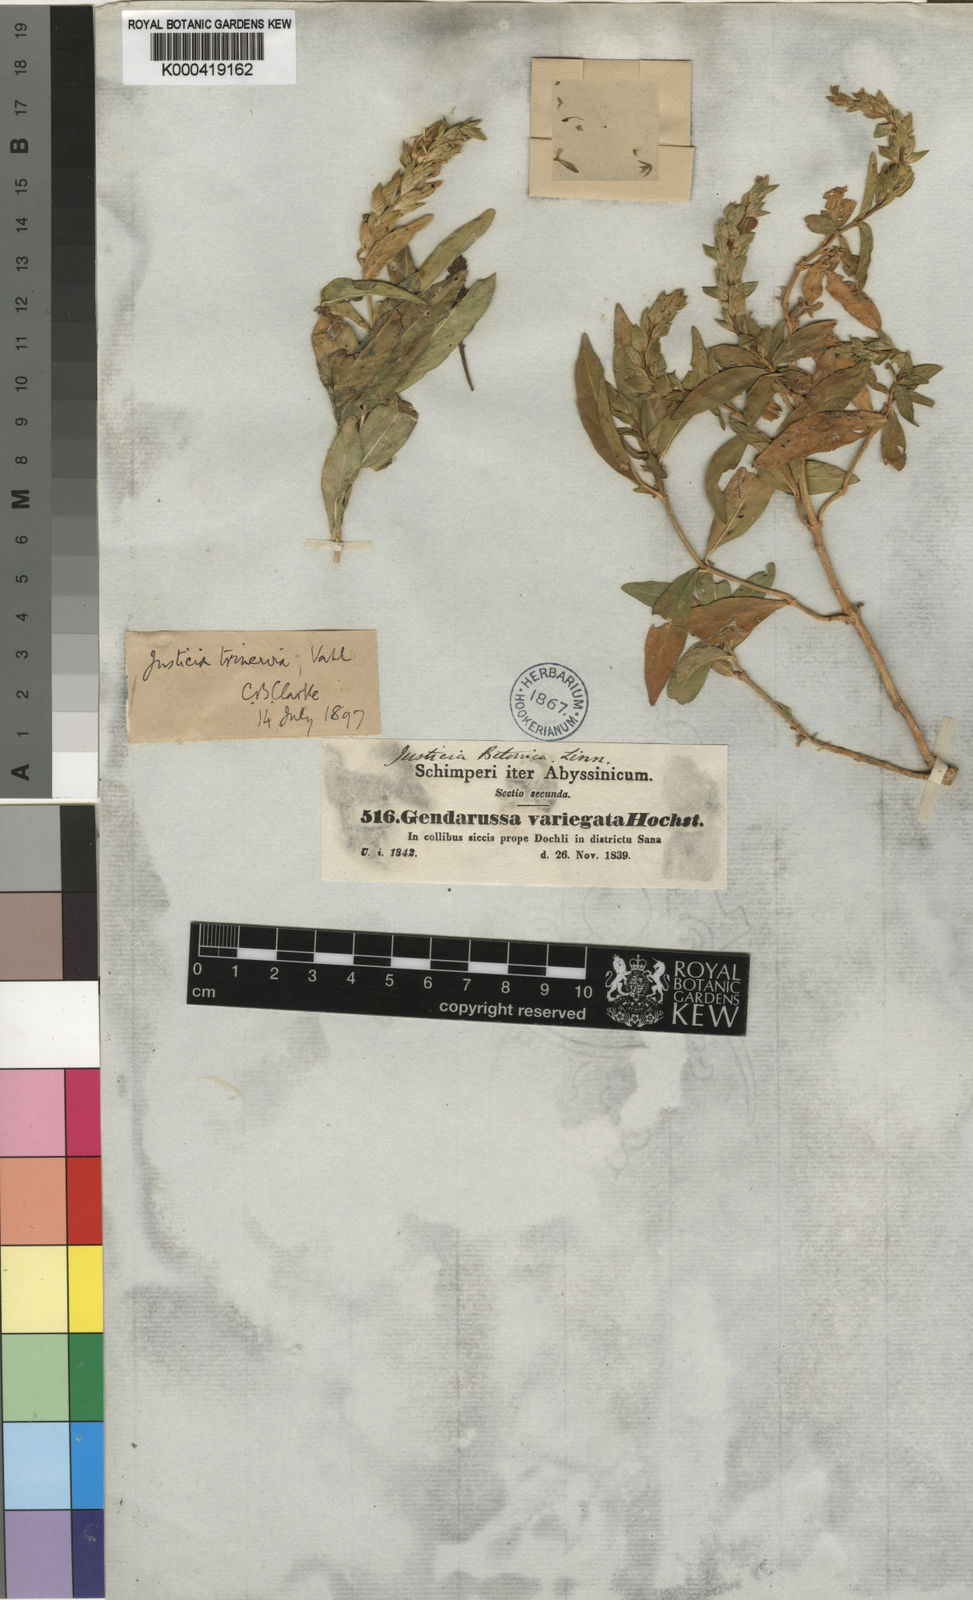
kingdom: Plantae
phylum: Tracheophyta
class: Magnoliopsida
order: Lamiales
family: Acanthaceae
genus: Nicoteba
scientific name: Nicoteba betonica
